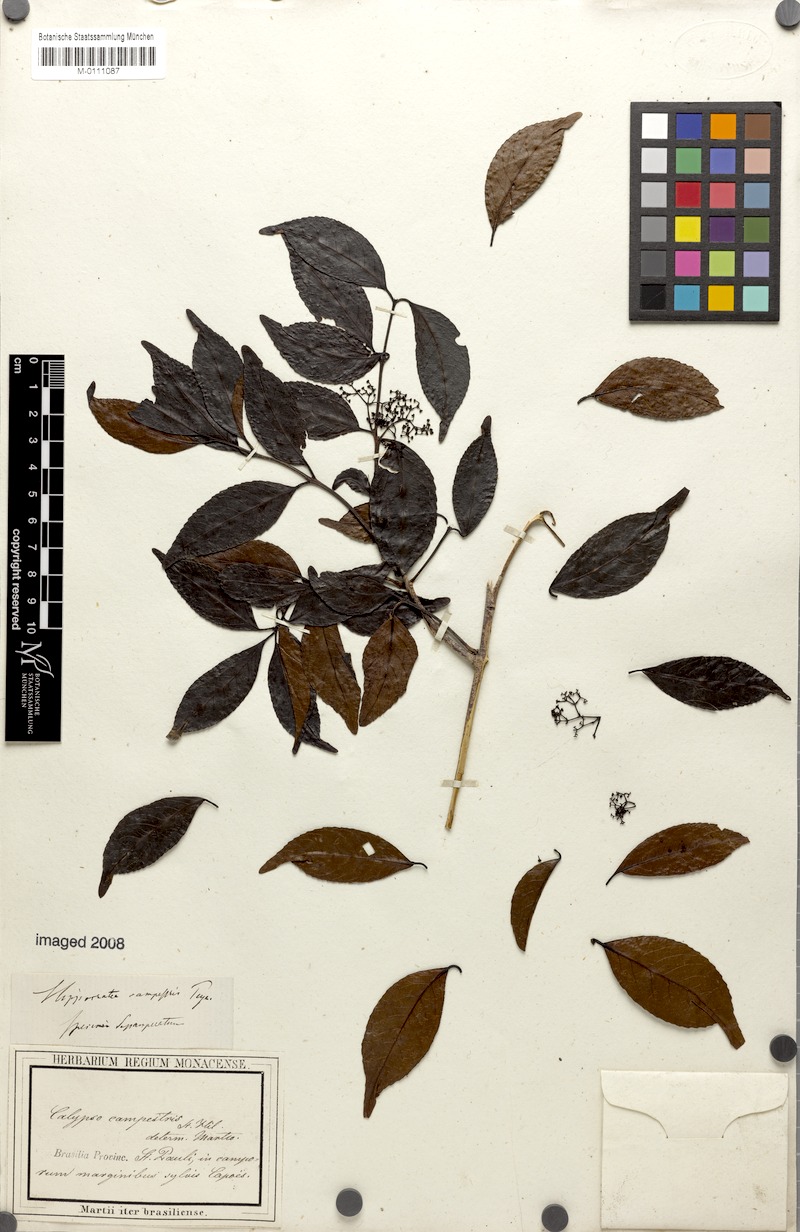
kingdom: Plantae
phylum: Tracheophyta
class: Magnoliopsida
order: Celastrales
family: Celastraceae
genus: Elachyptera
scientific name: Elachyptera festiva
